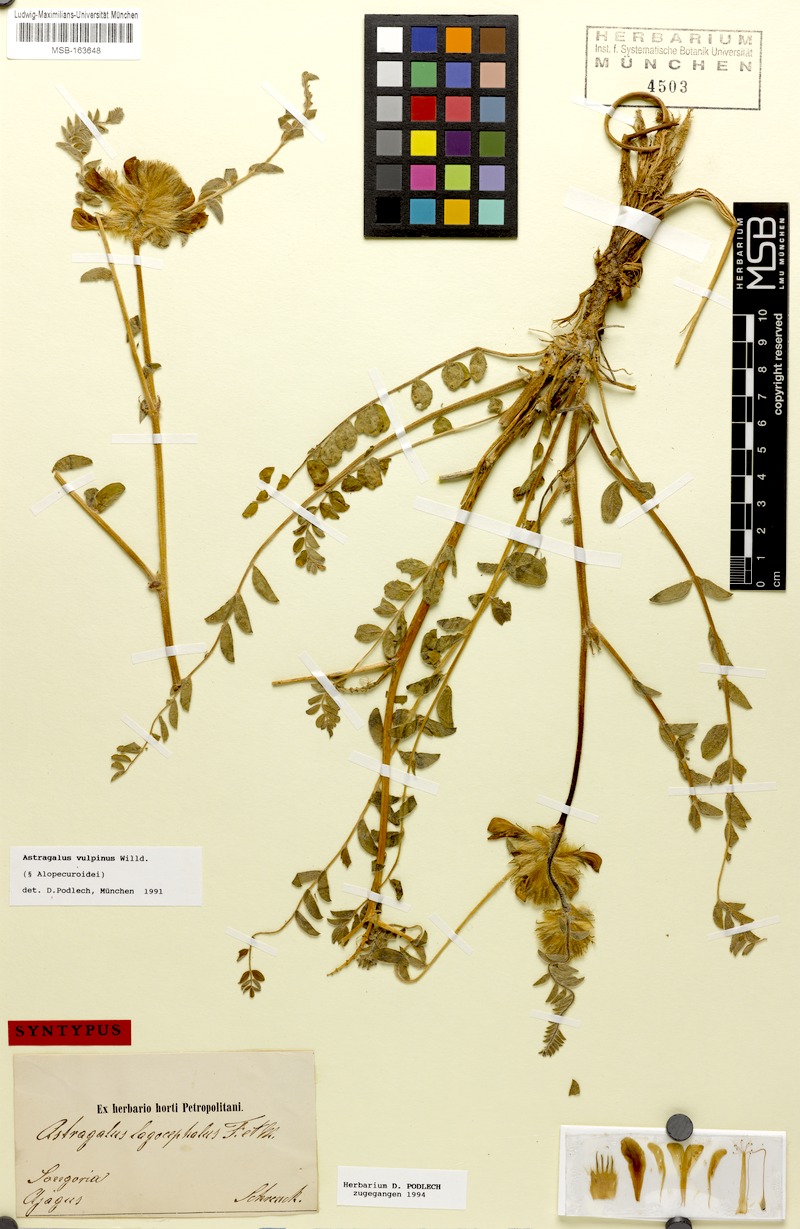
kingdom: Plantae
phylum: Tracheophyta
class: Magnoliopsida
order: Fabales
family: Fabaceae
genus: Astragalus
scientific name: Astragalus vulpinus
